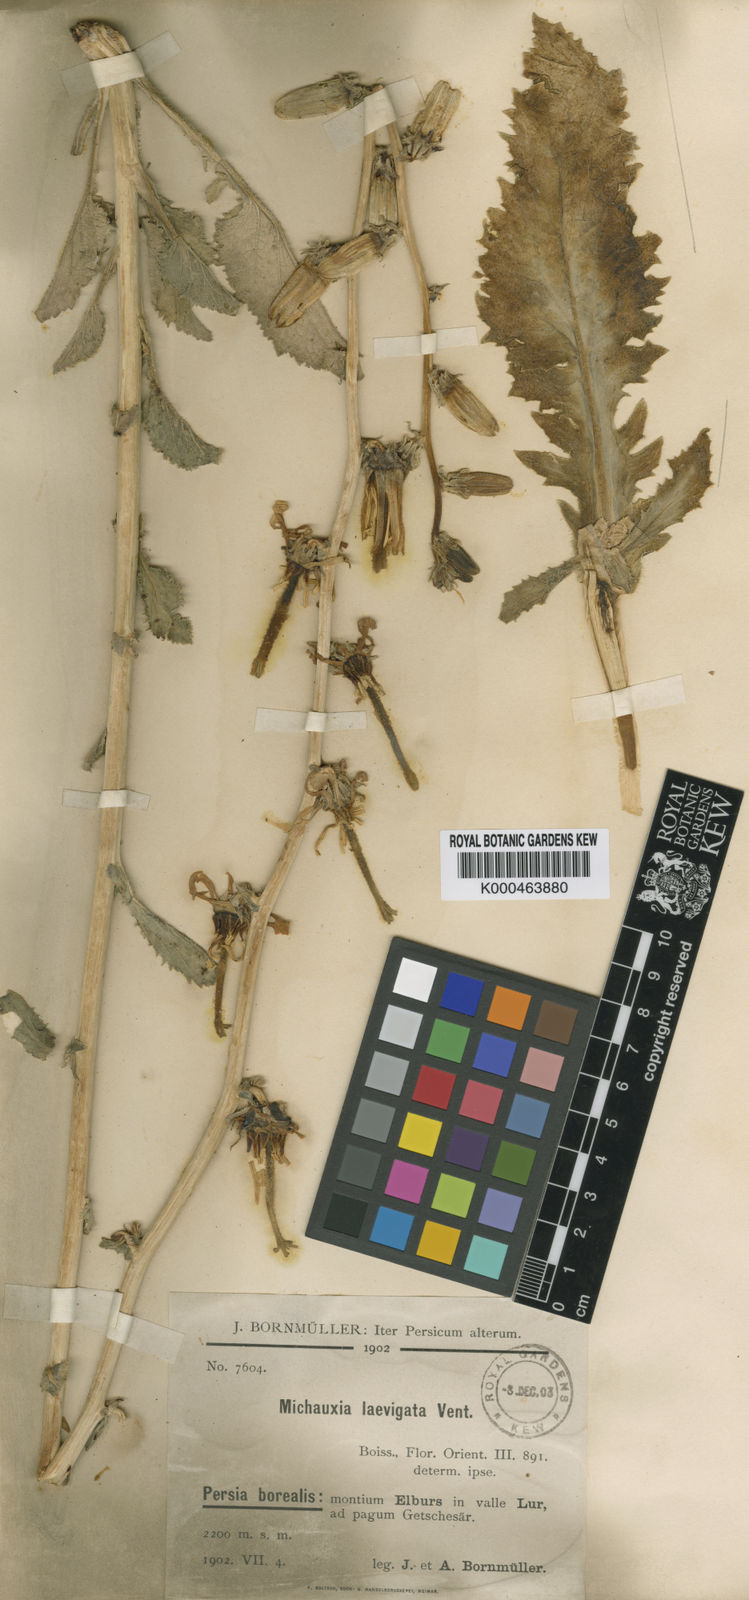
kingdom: Plantae
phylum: Tracheophyta
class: Magnoliopsida
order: Asterales
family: Campanulaceae
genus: Michauxia
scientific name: Michauxia laevigata
